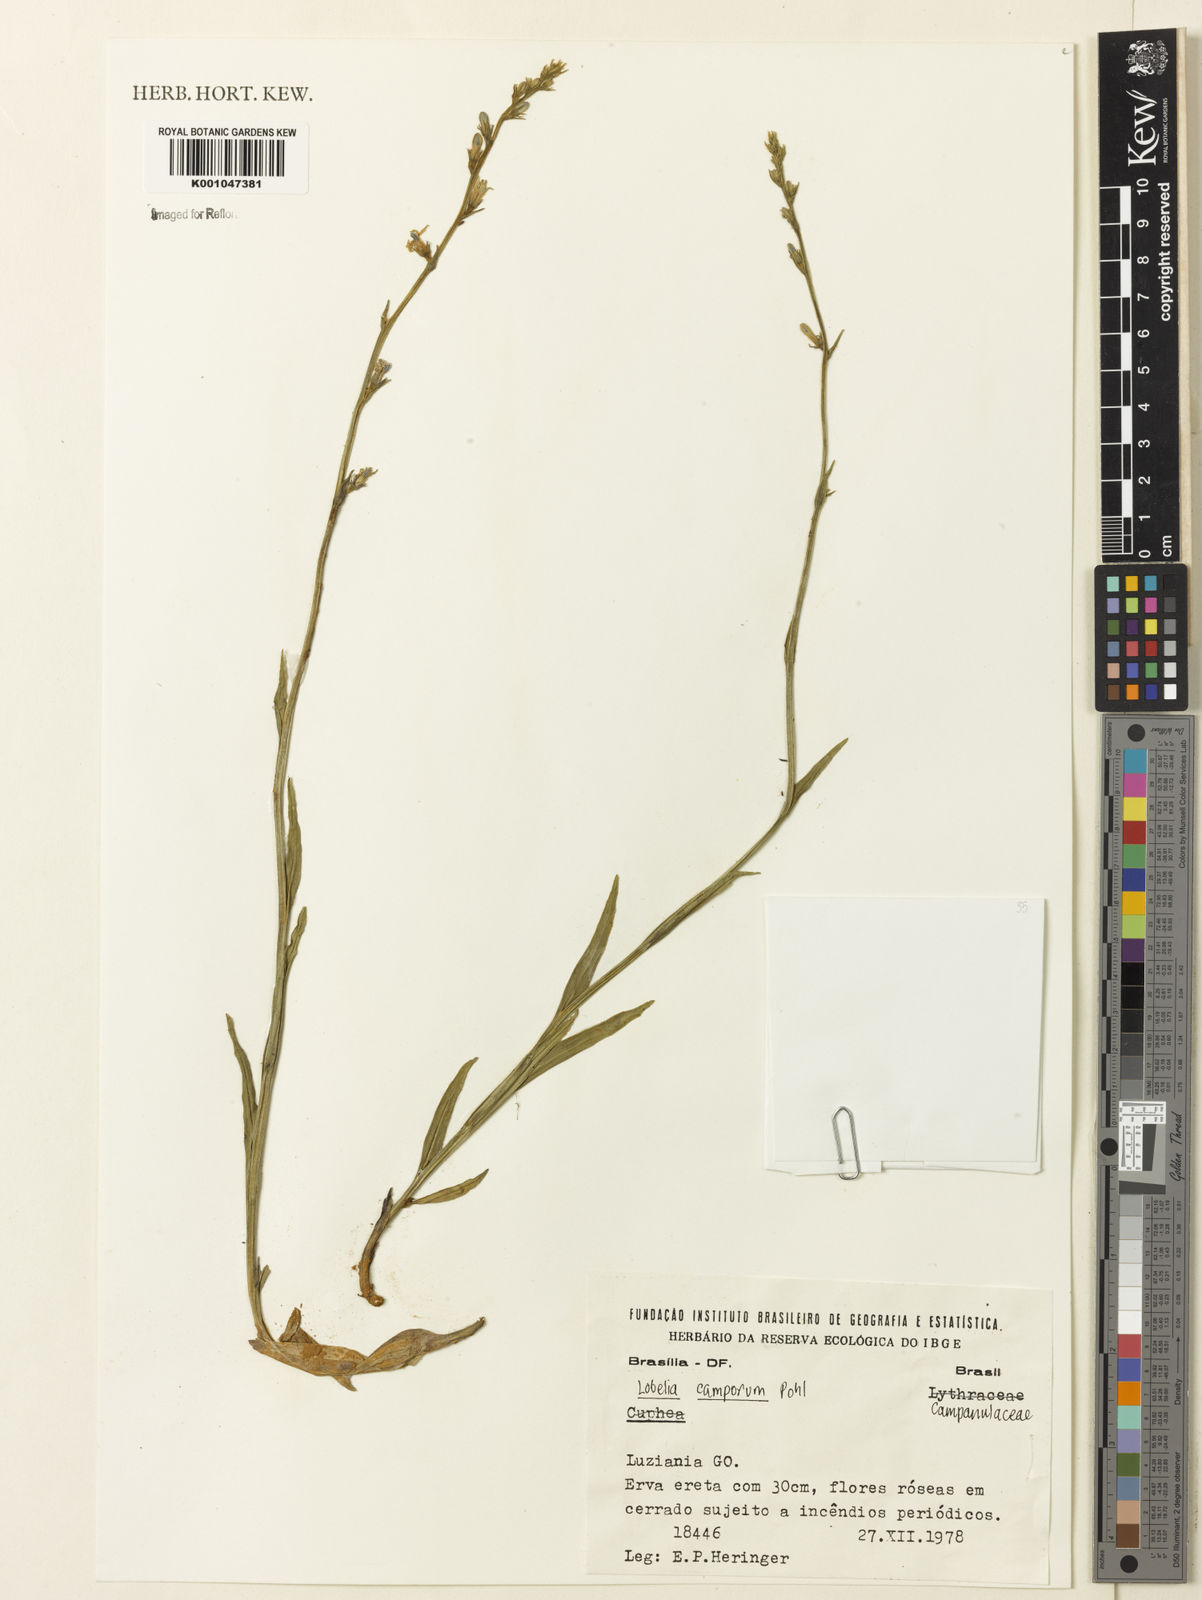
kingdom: Plantae
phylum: Tracheophyta
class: Magnoliopsida
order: Asterales
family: Campanulaceae
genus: Lobelia
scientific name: Lobelia camporum
